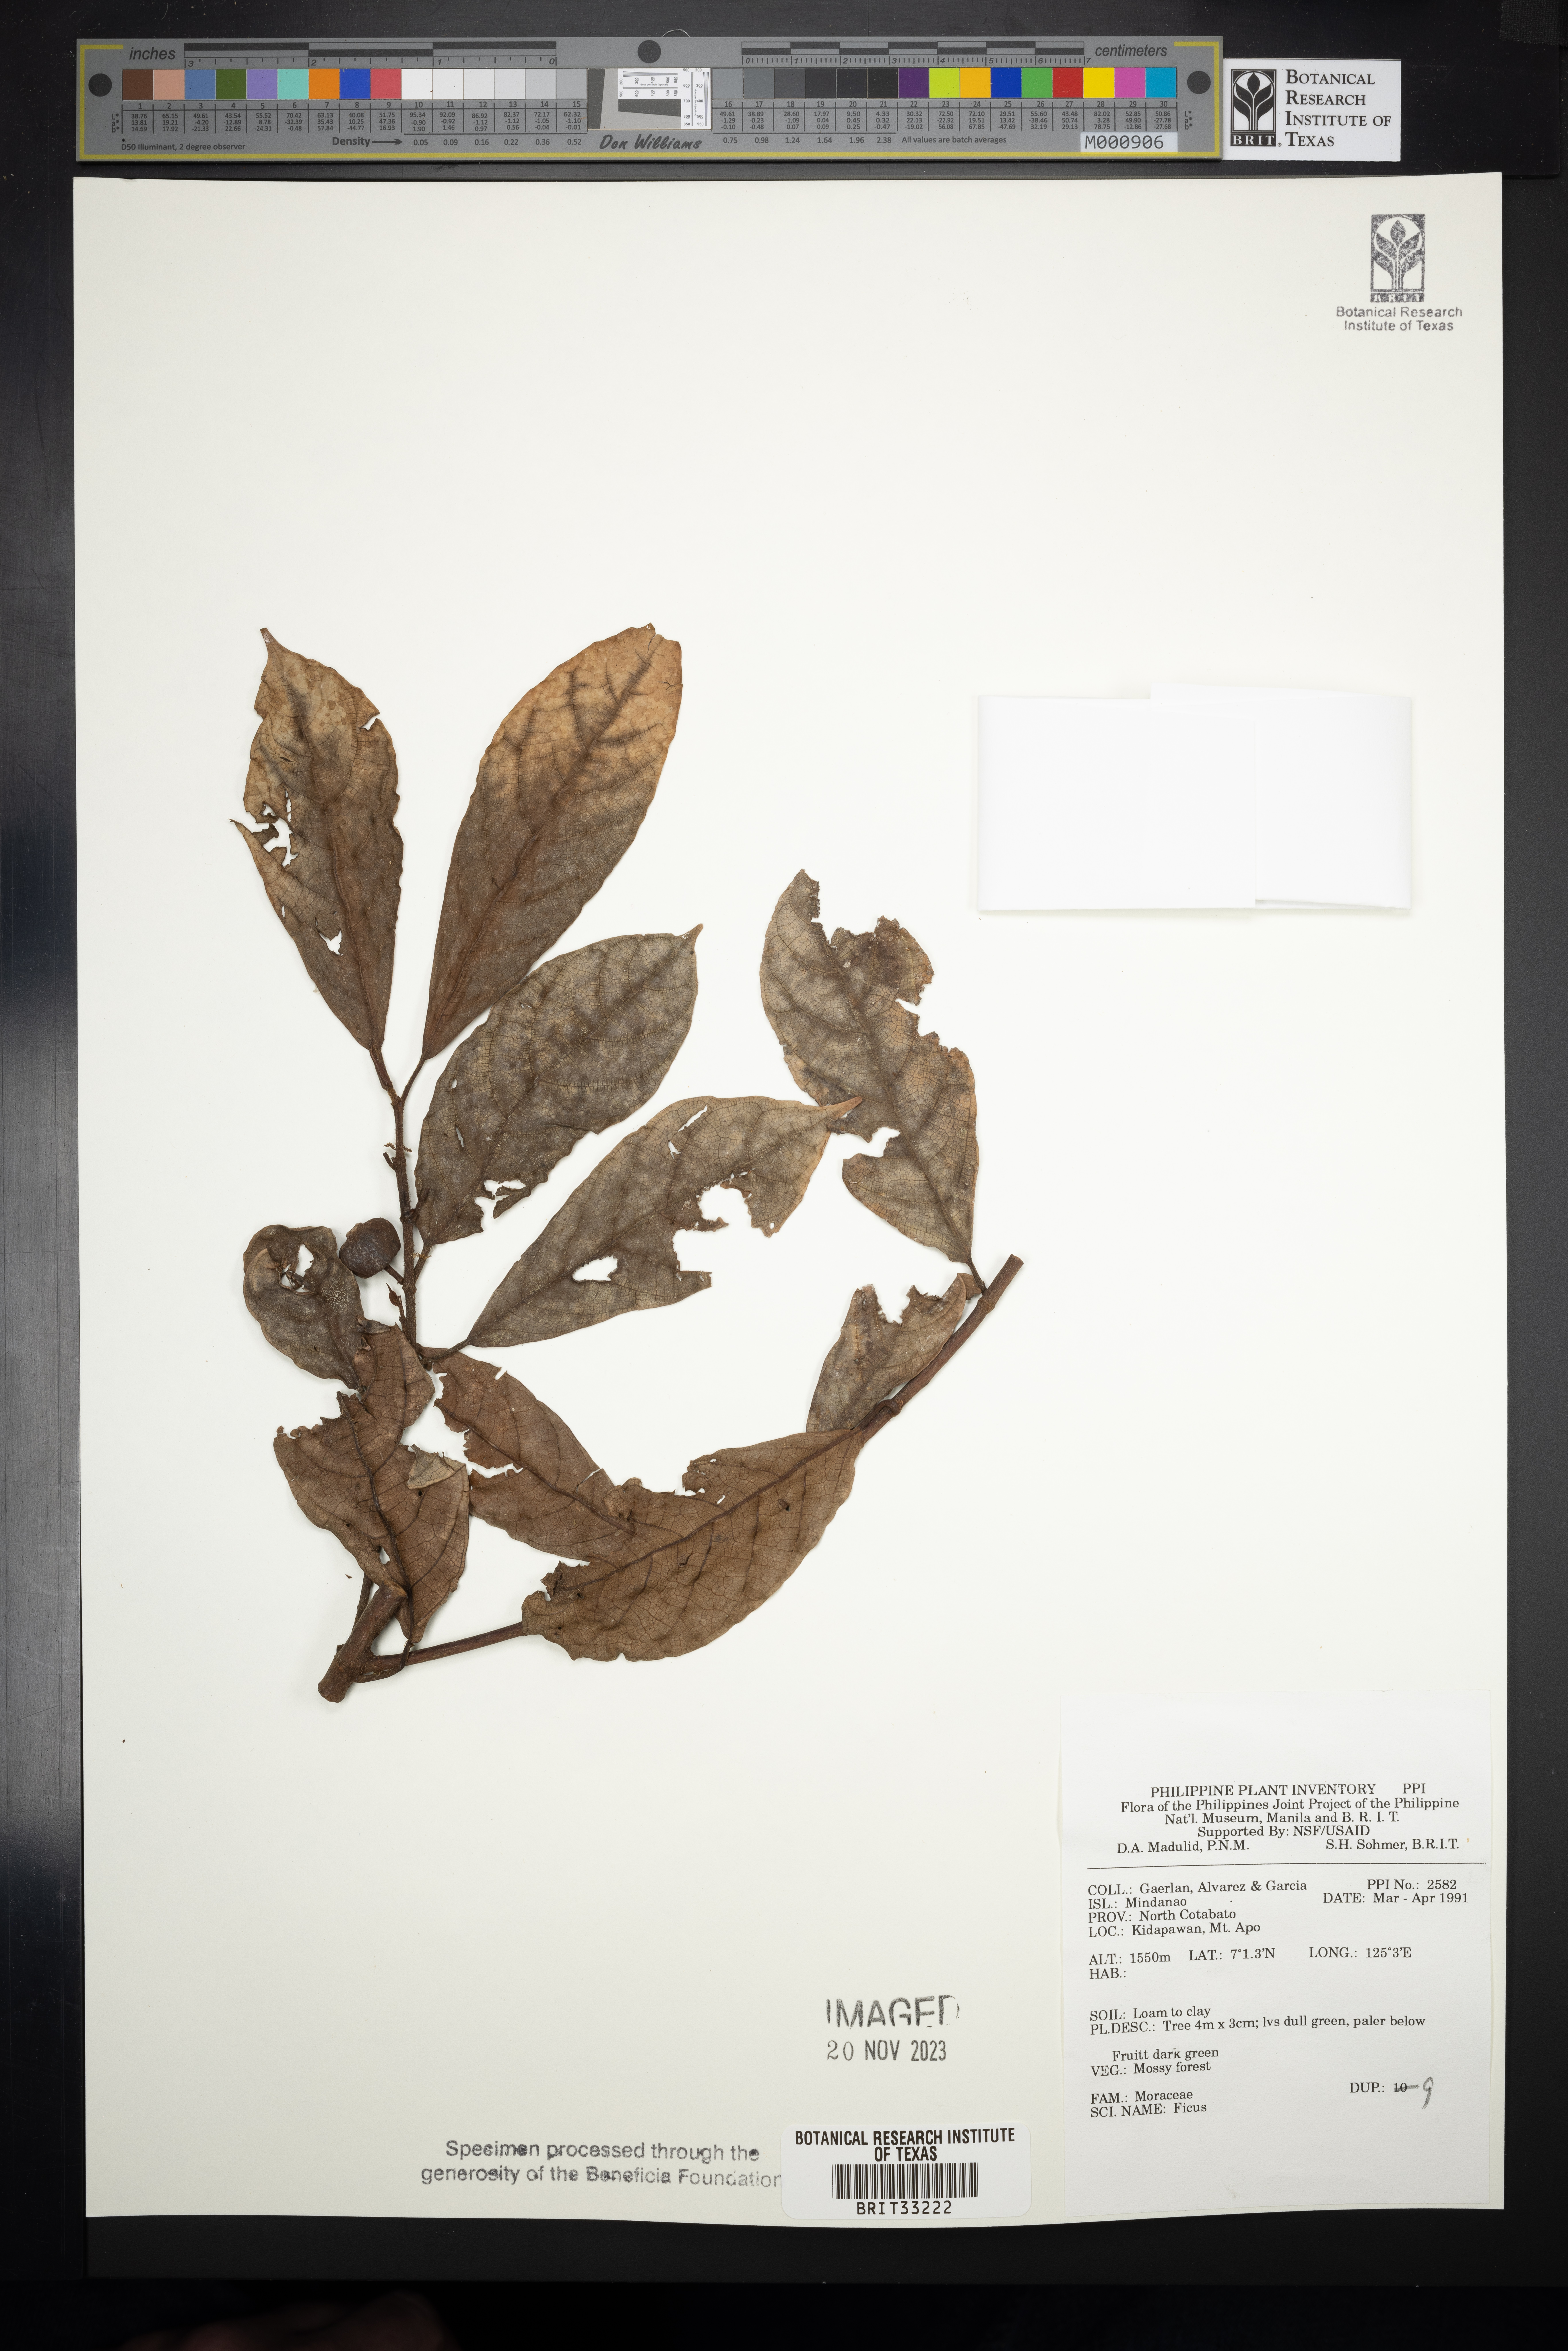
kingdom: Plantae
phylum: Tracheophyta
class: Magnoliopsida
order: Rosales
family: Moraceae
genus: Ficus
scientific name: Ficus
